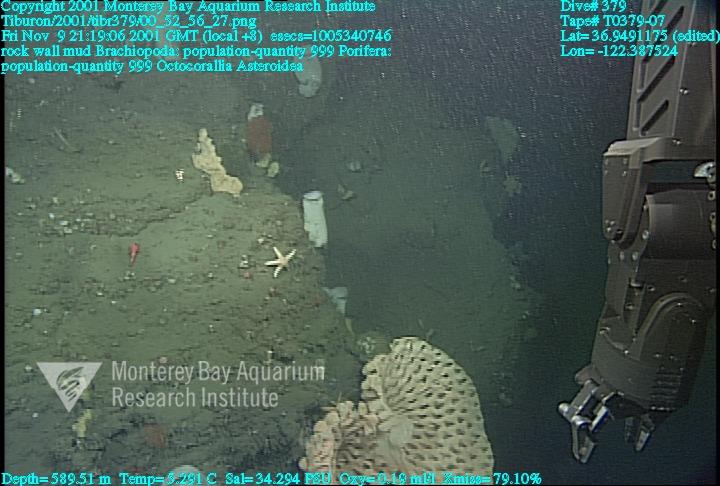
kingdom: Animalia
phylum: Porifera
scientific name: Porifera
